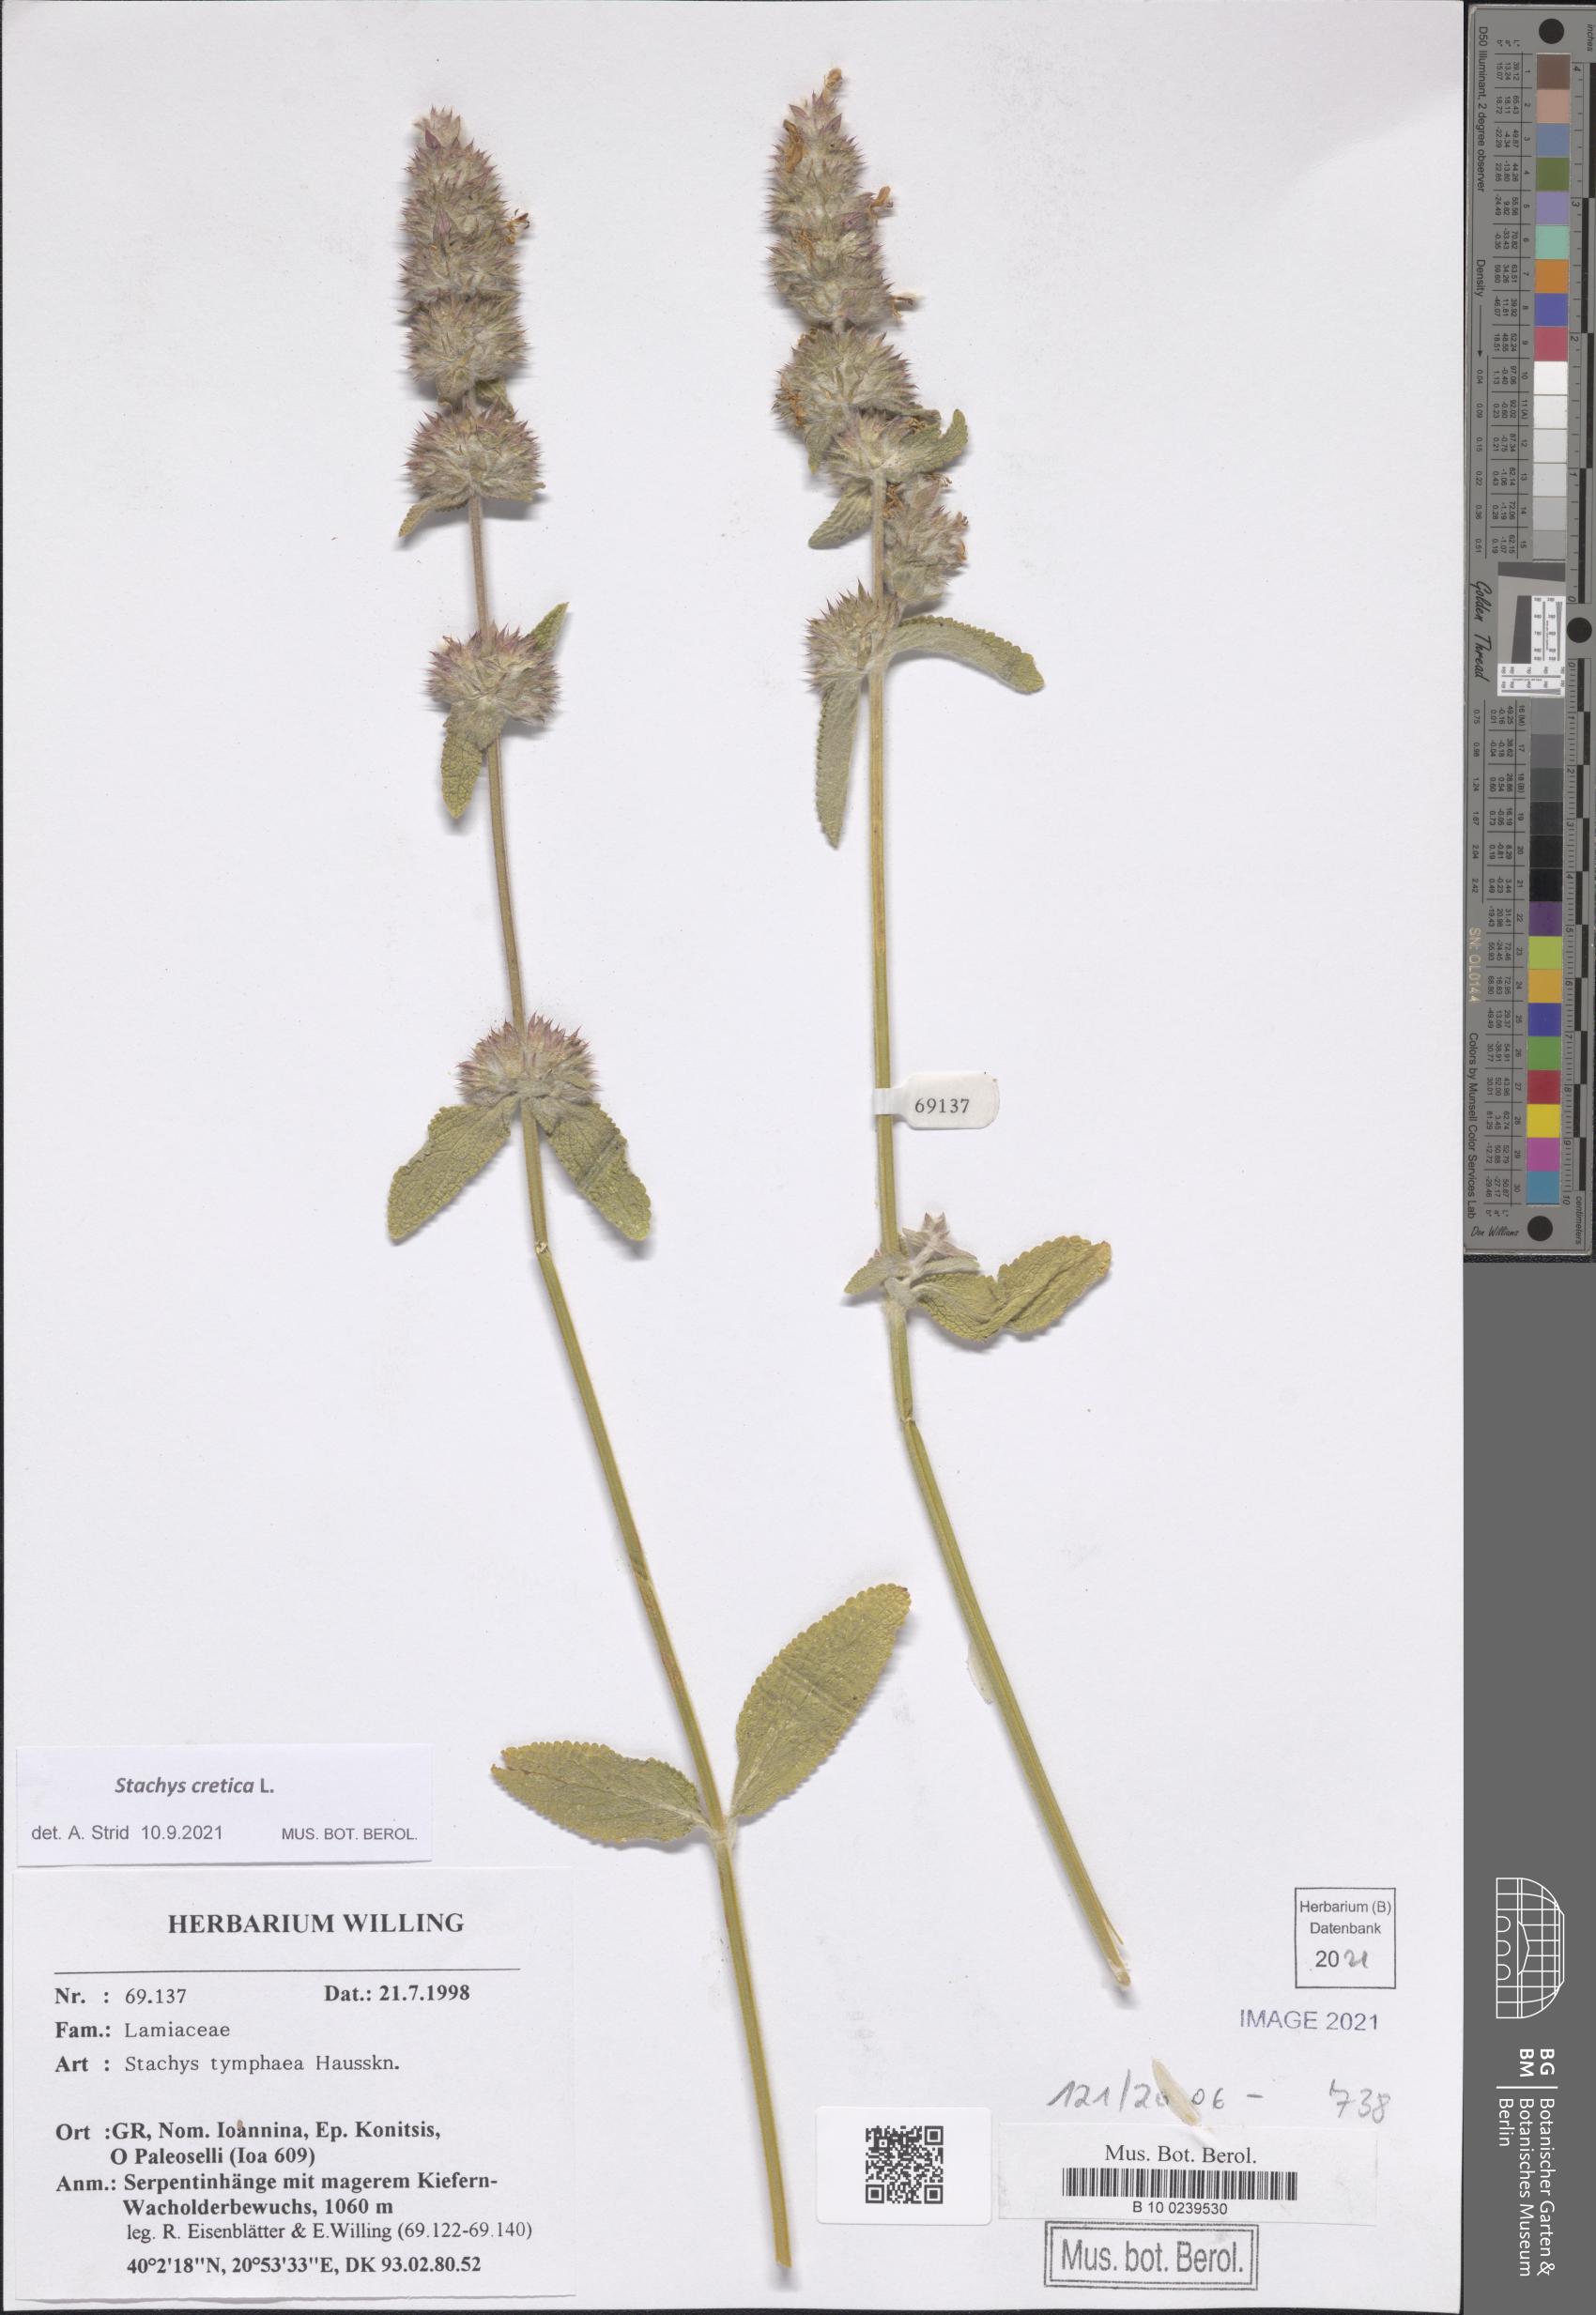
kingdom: Plantae
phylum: Tracheophyta
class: Magnoliopsida
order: Lamiales
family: Lamiaceae
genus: Stachys
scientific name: Stachys cretica
